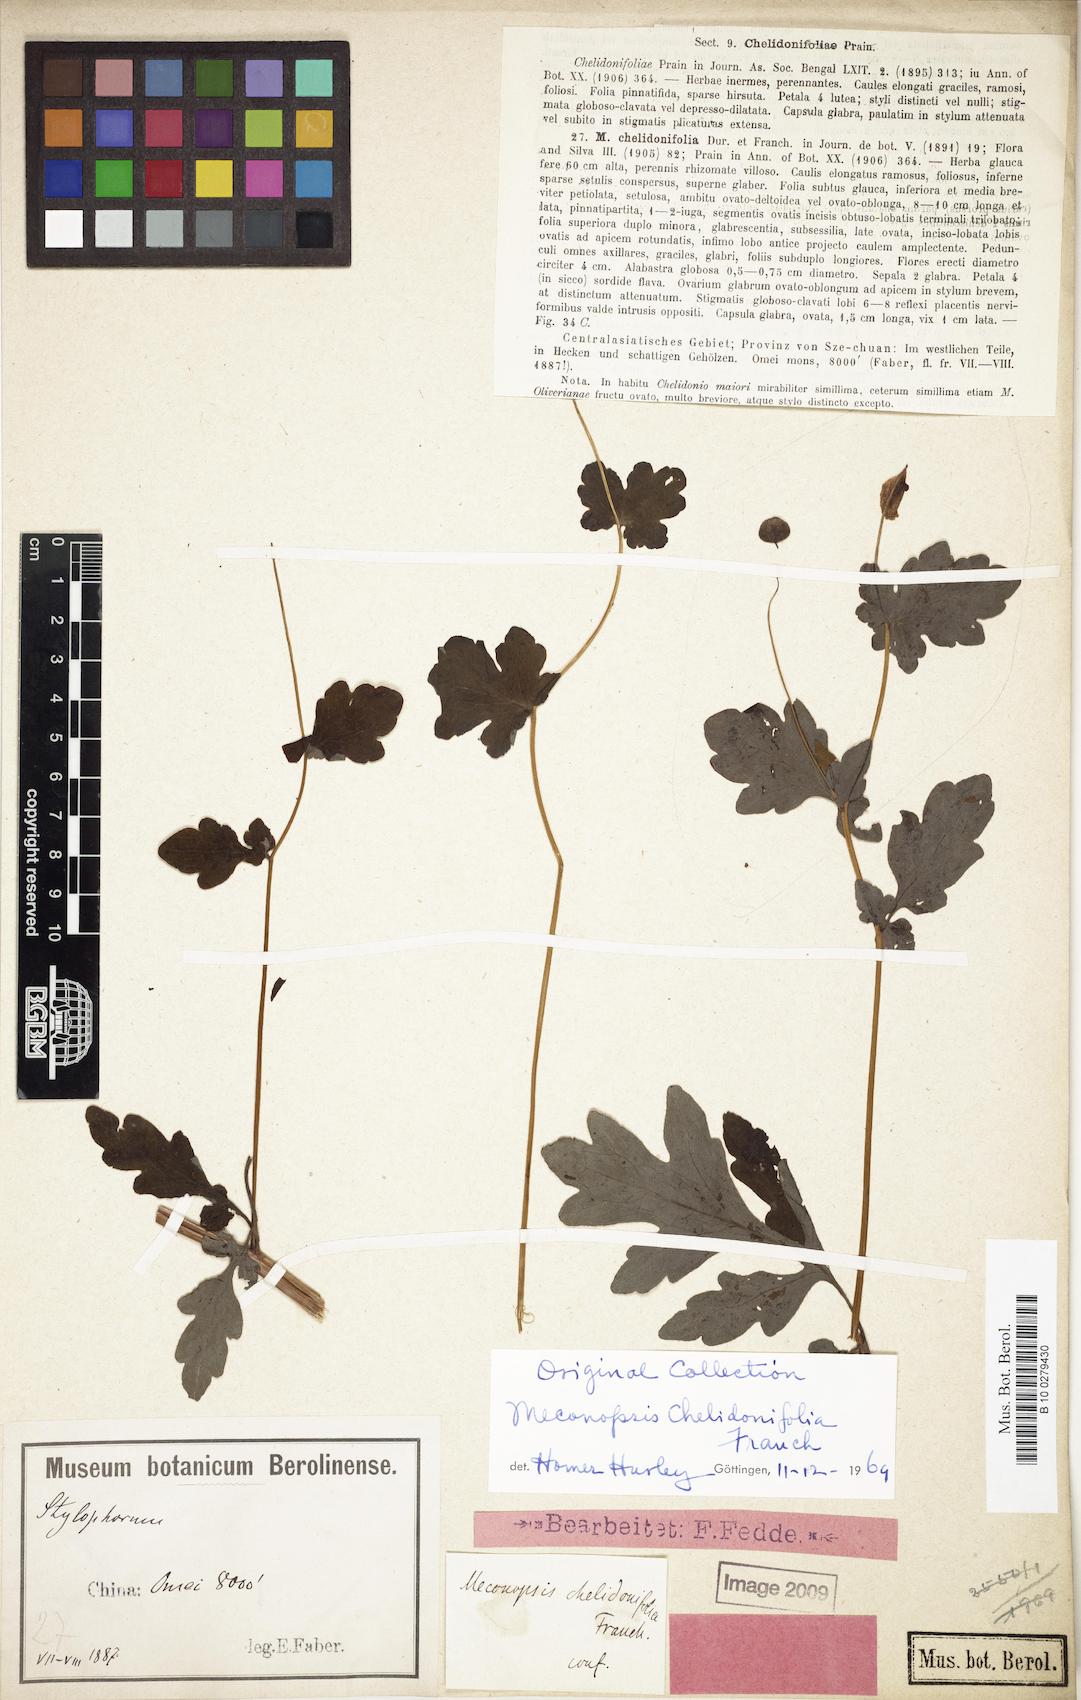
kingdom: Plantae
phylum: Tracheophyta
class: Magnoliopsida
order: Ranunculales
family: Papaveraceae
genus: Cathcartia
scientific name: Cathcartia chelidoniifolia
